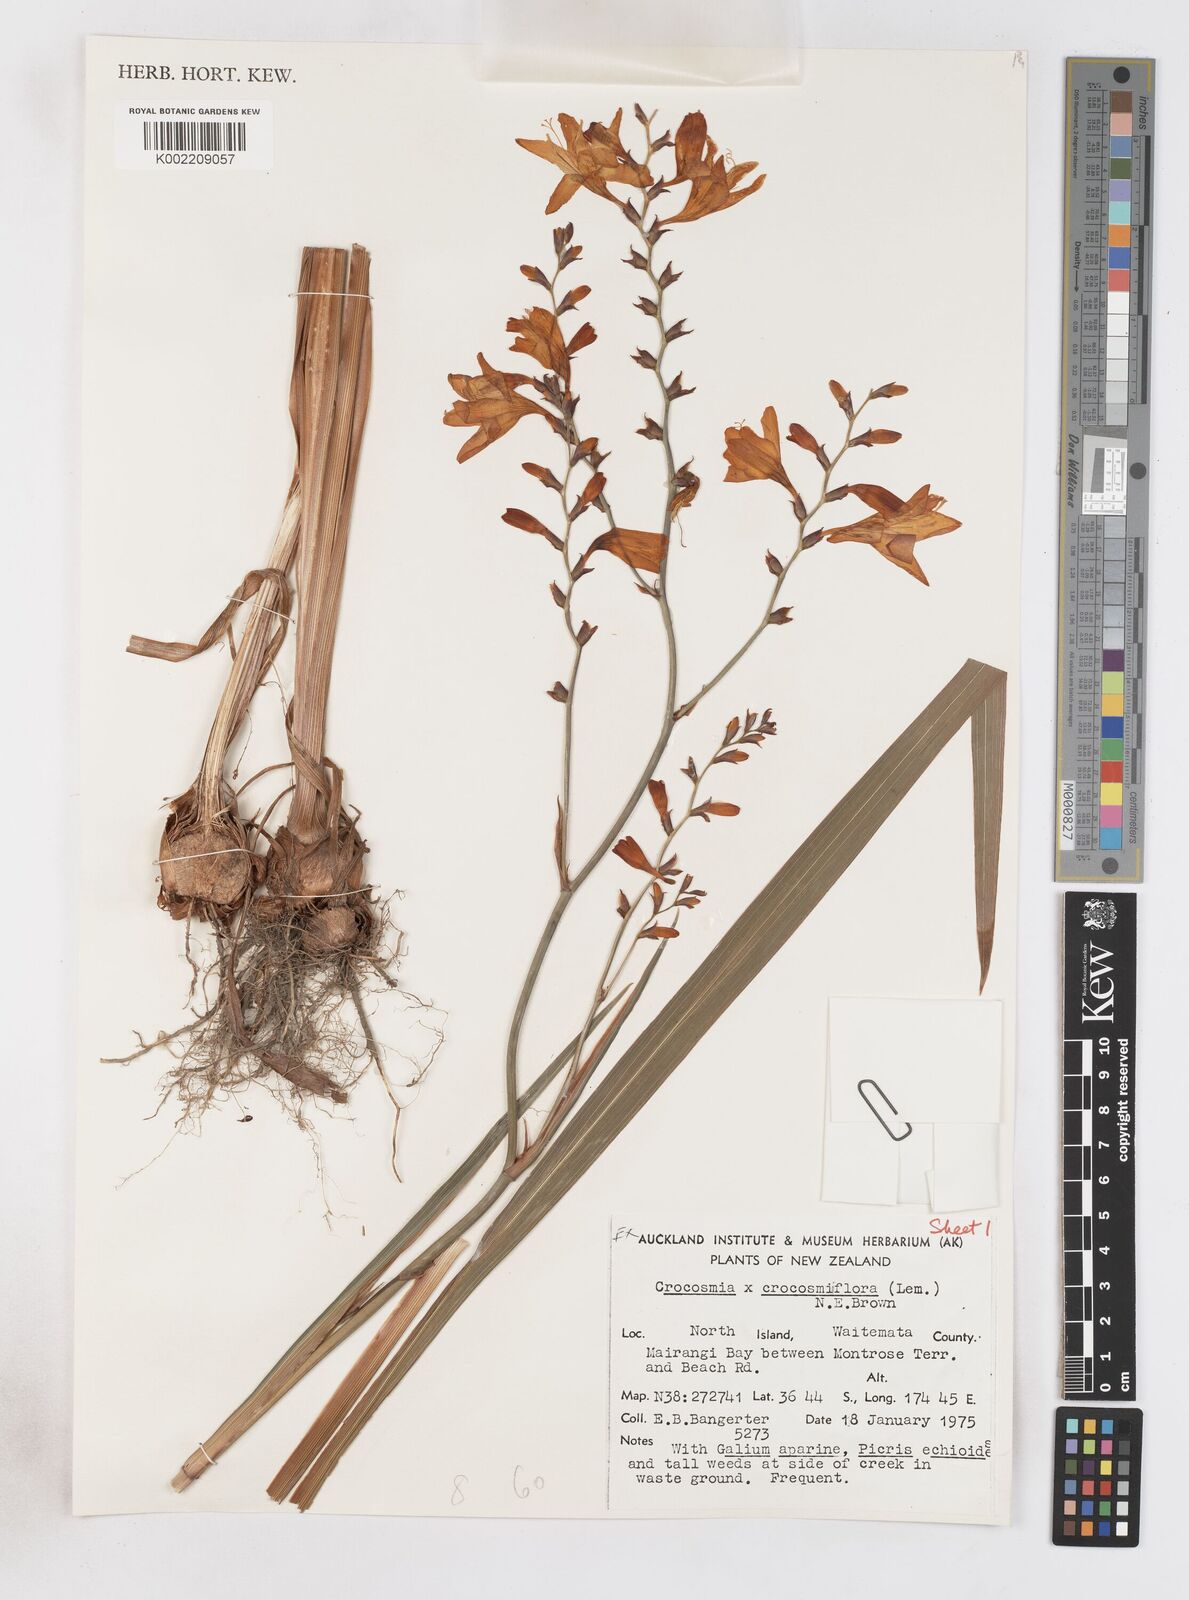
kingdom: Plantae
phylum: Tracheophyta
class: Liliopsida
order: Asparagales
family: Iridaceae
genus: Crocosmia
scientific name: Crocosmia crocosmiiflora
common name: Montbretia
